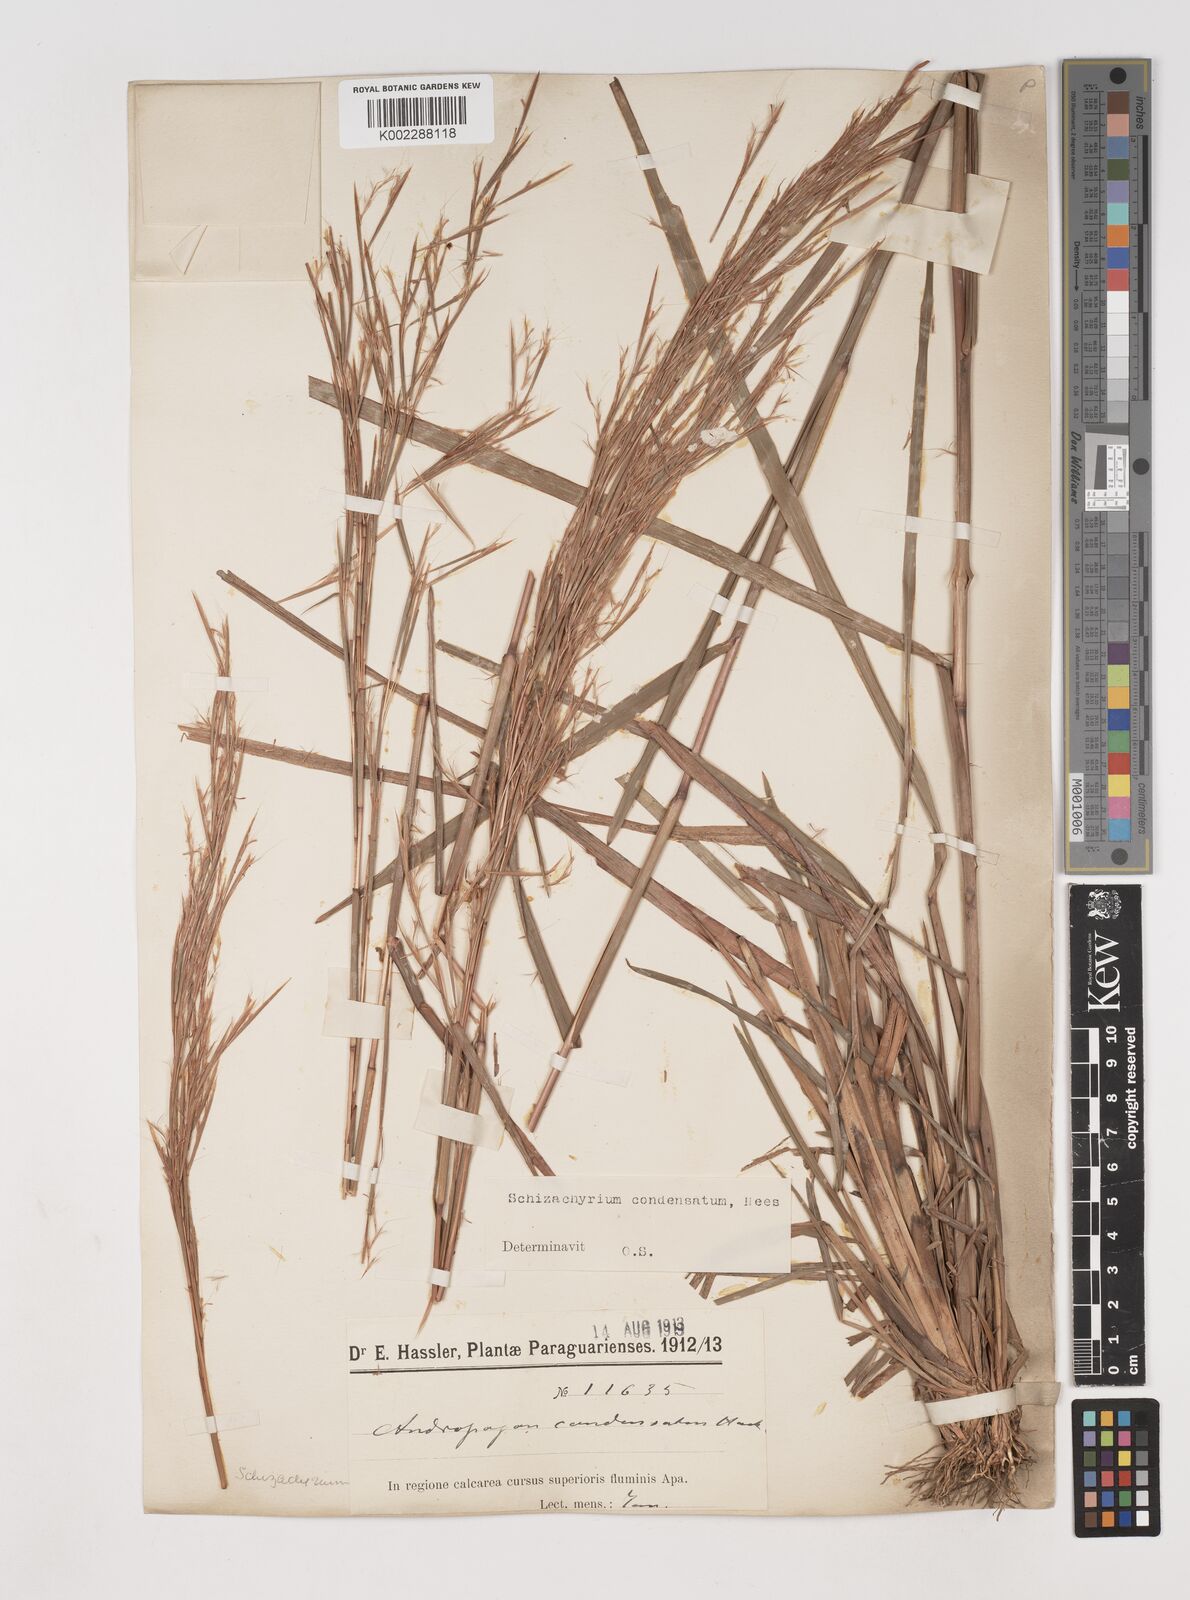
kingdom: Plantae
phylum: Tracheophyta
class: Liliopsida
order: Poales
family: Poaceae
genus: Schizachyrium
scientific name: Schizachyrium condensatum
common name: Bush beardgrass
